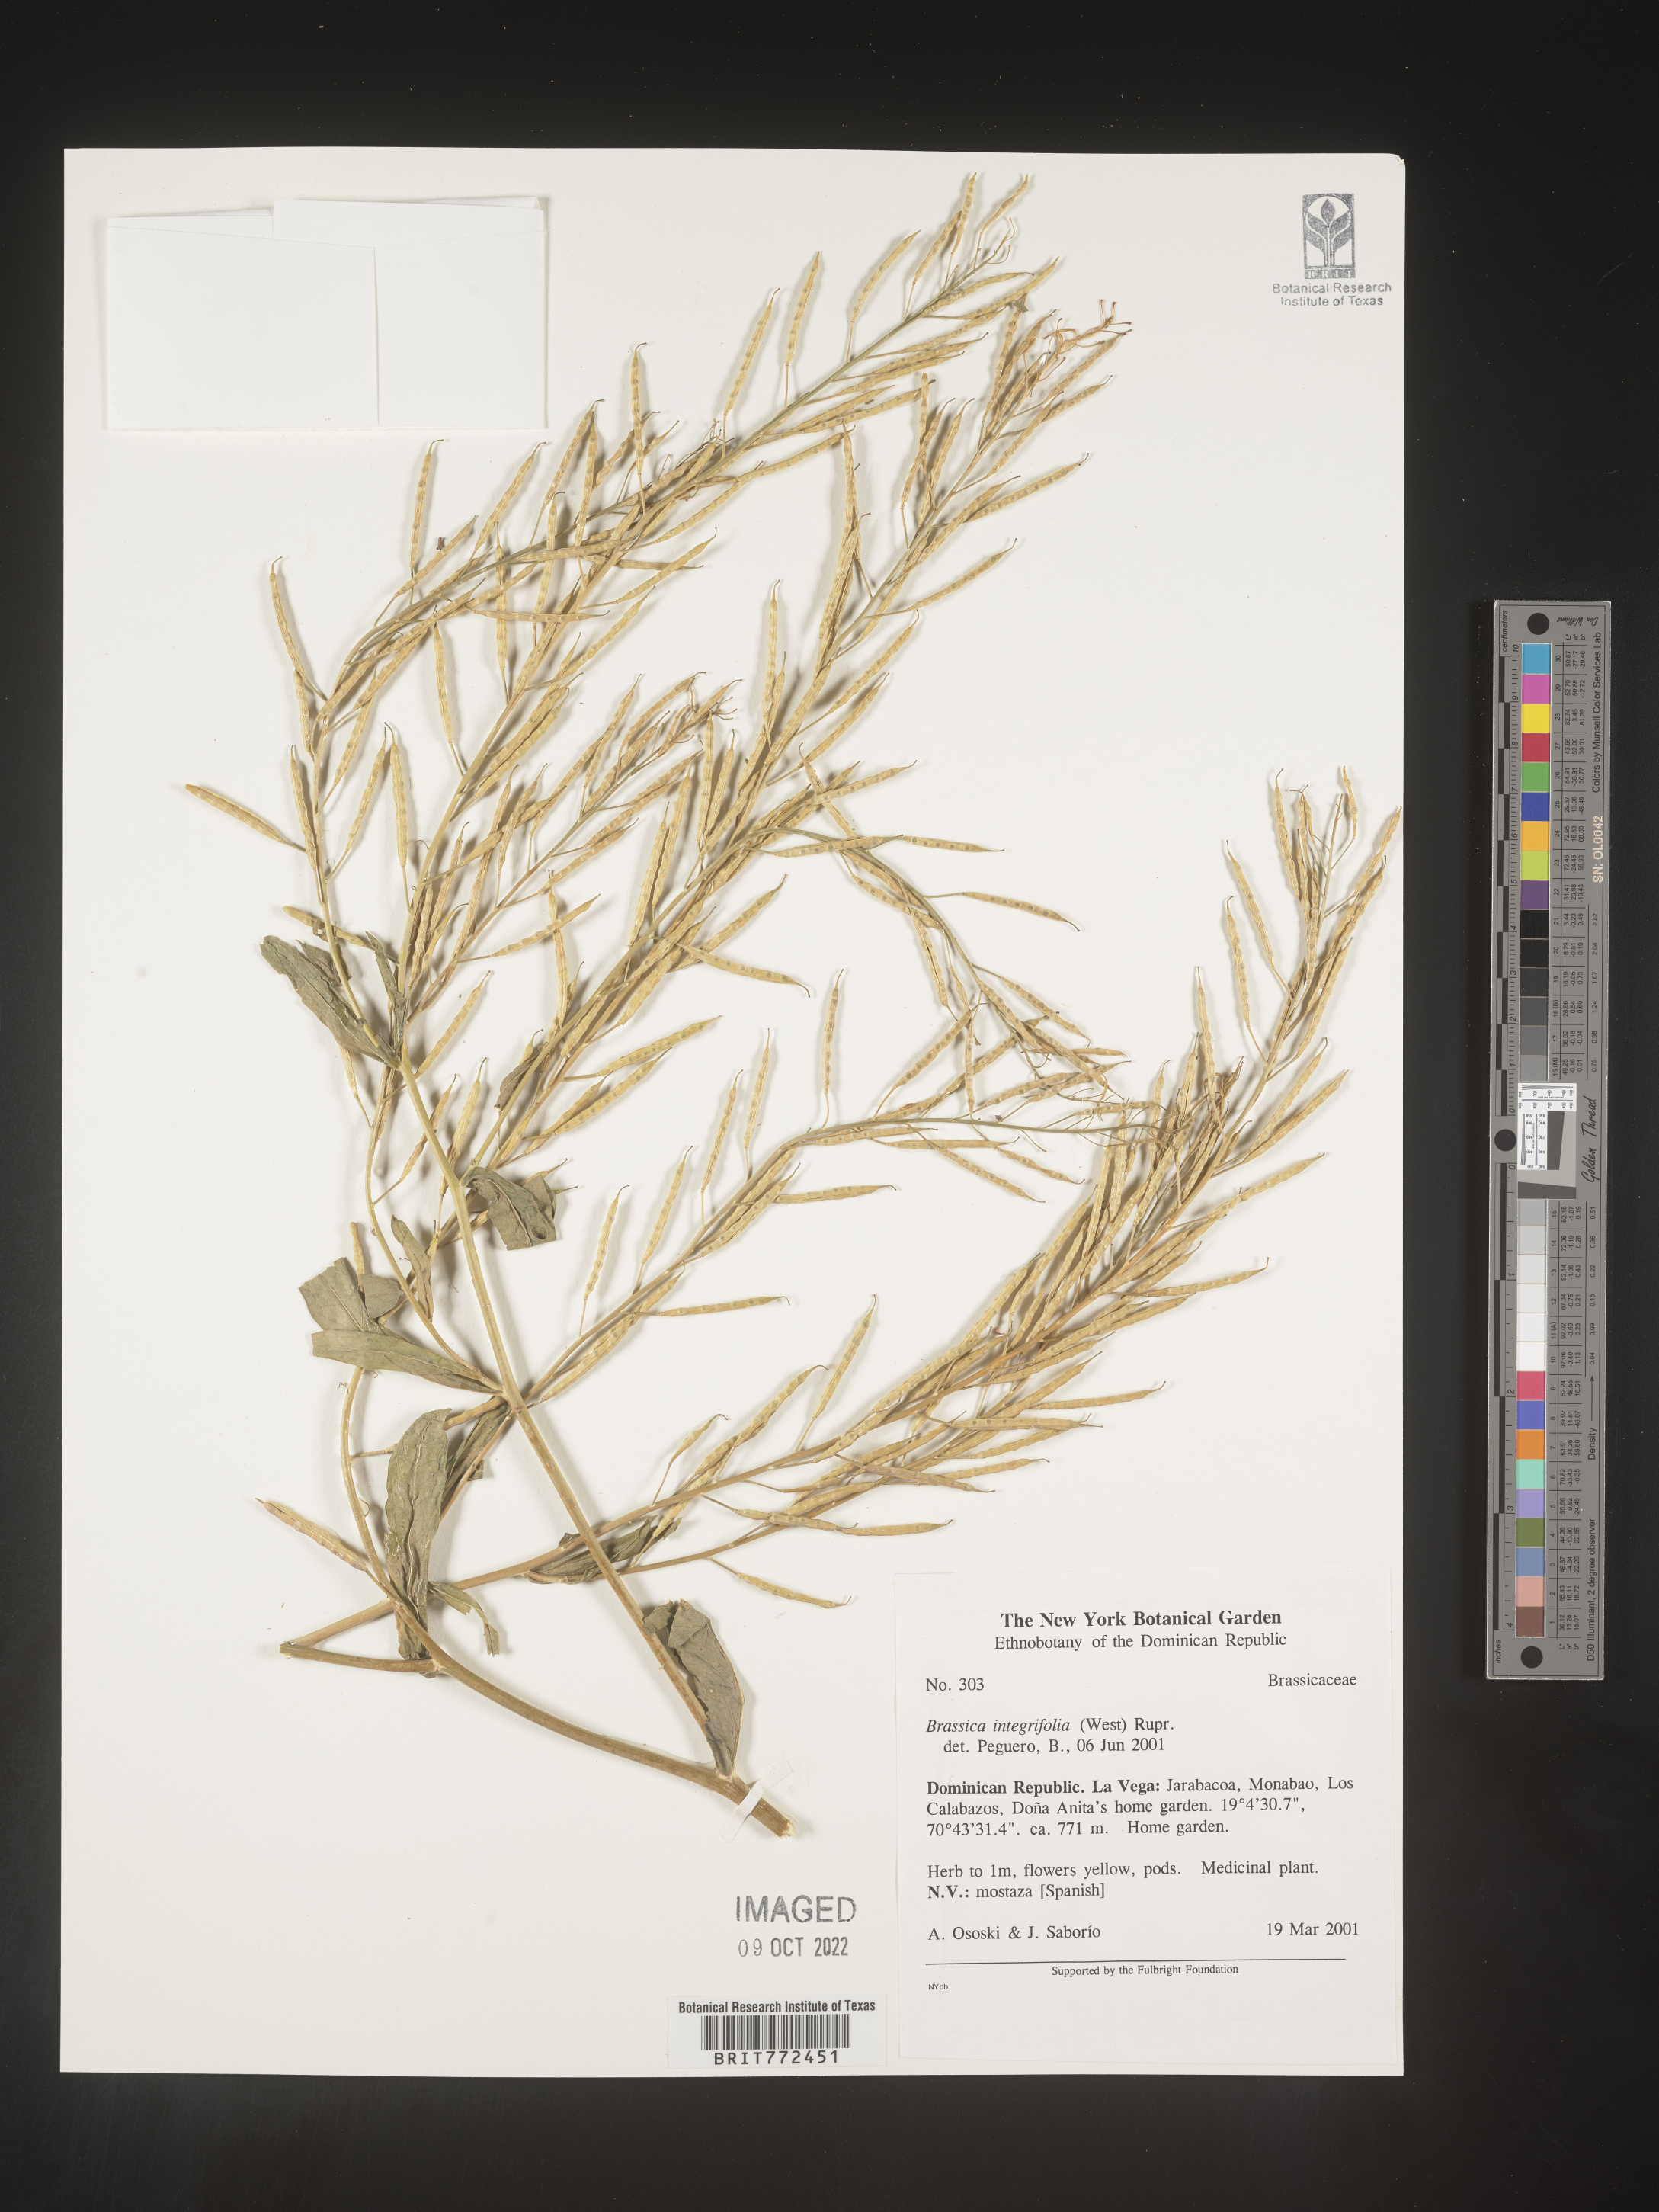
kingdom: Plantae
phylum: Tracheophyta
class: Magnoliopsida
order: Brassicales
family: Brassicaceae
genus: Brassica
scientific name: Brassica
